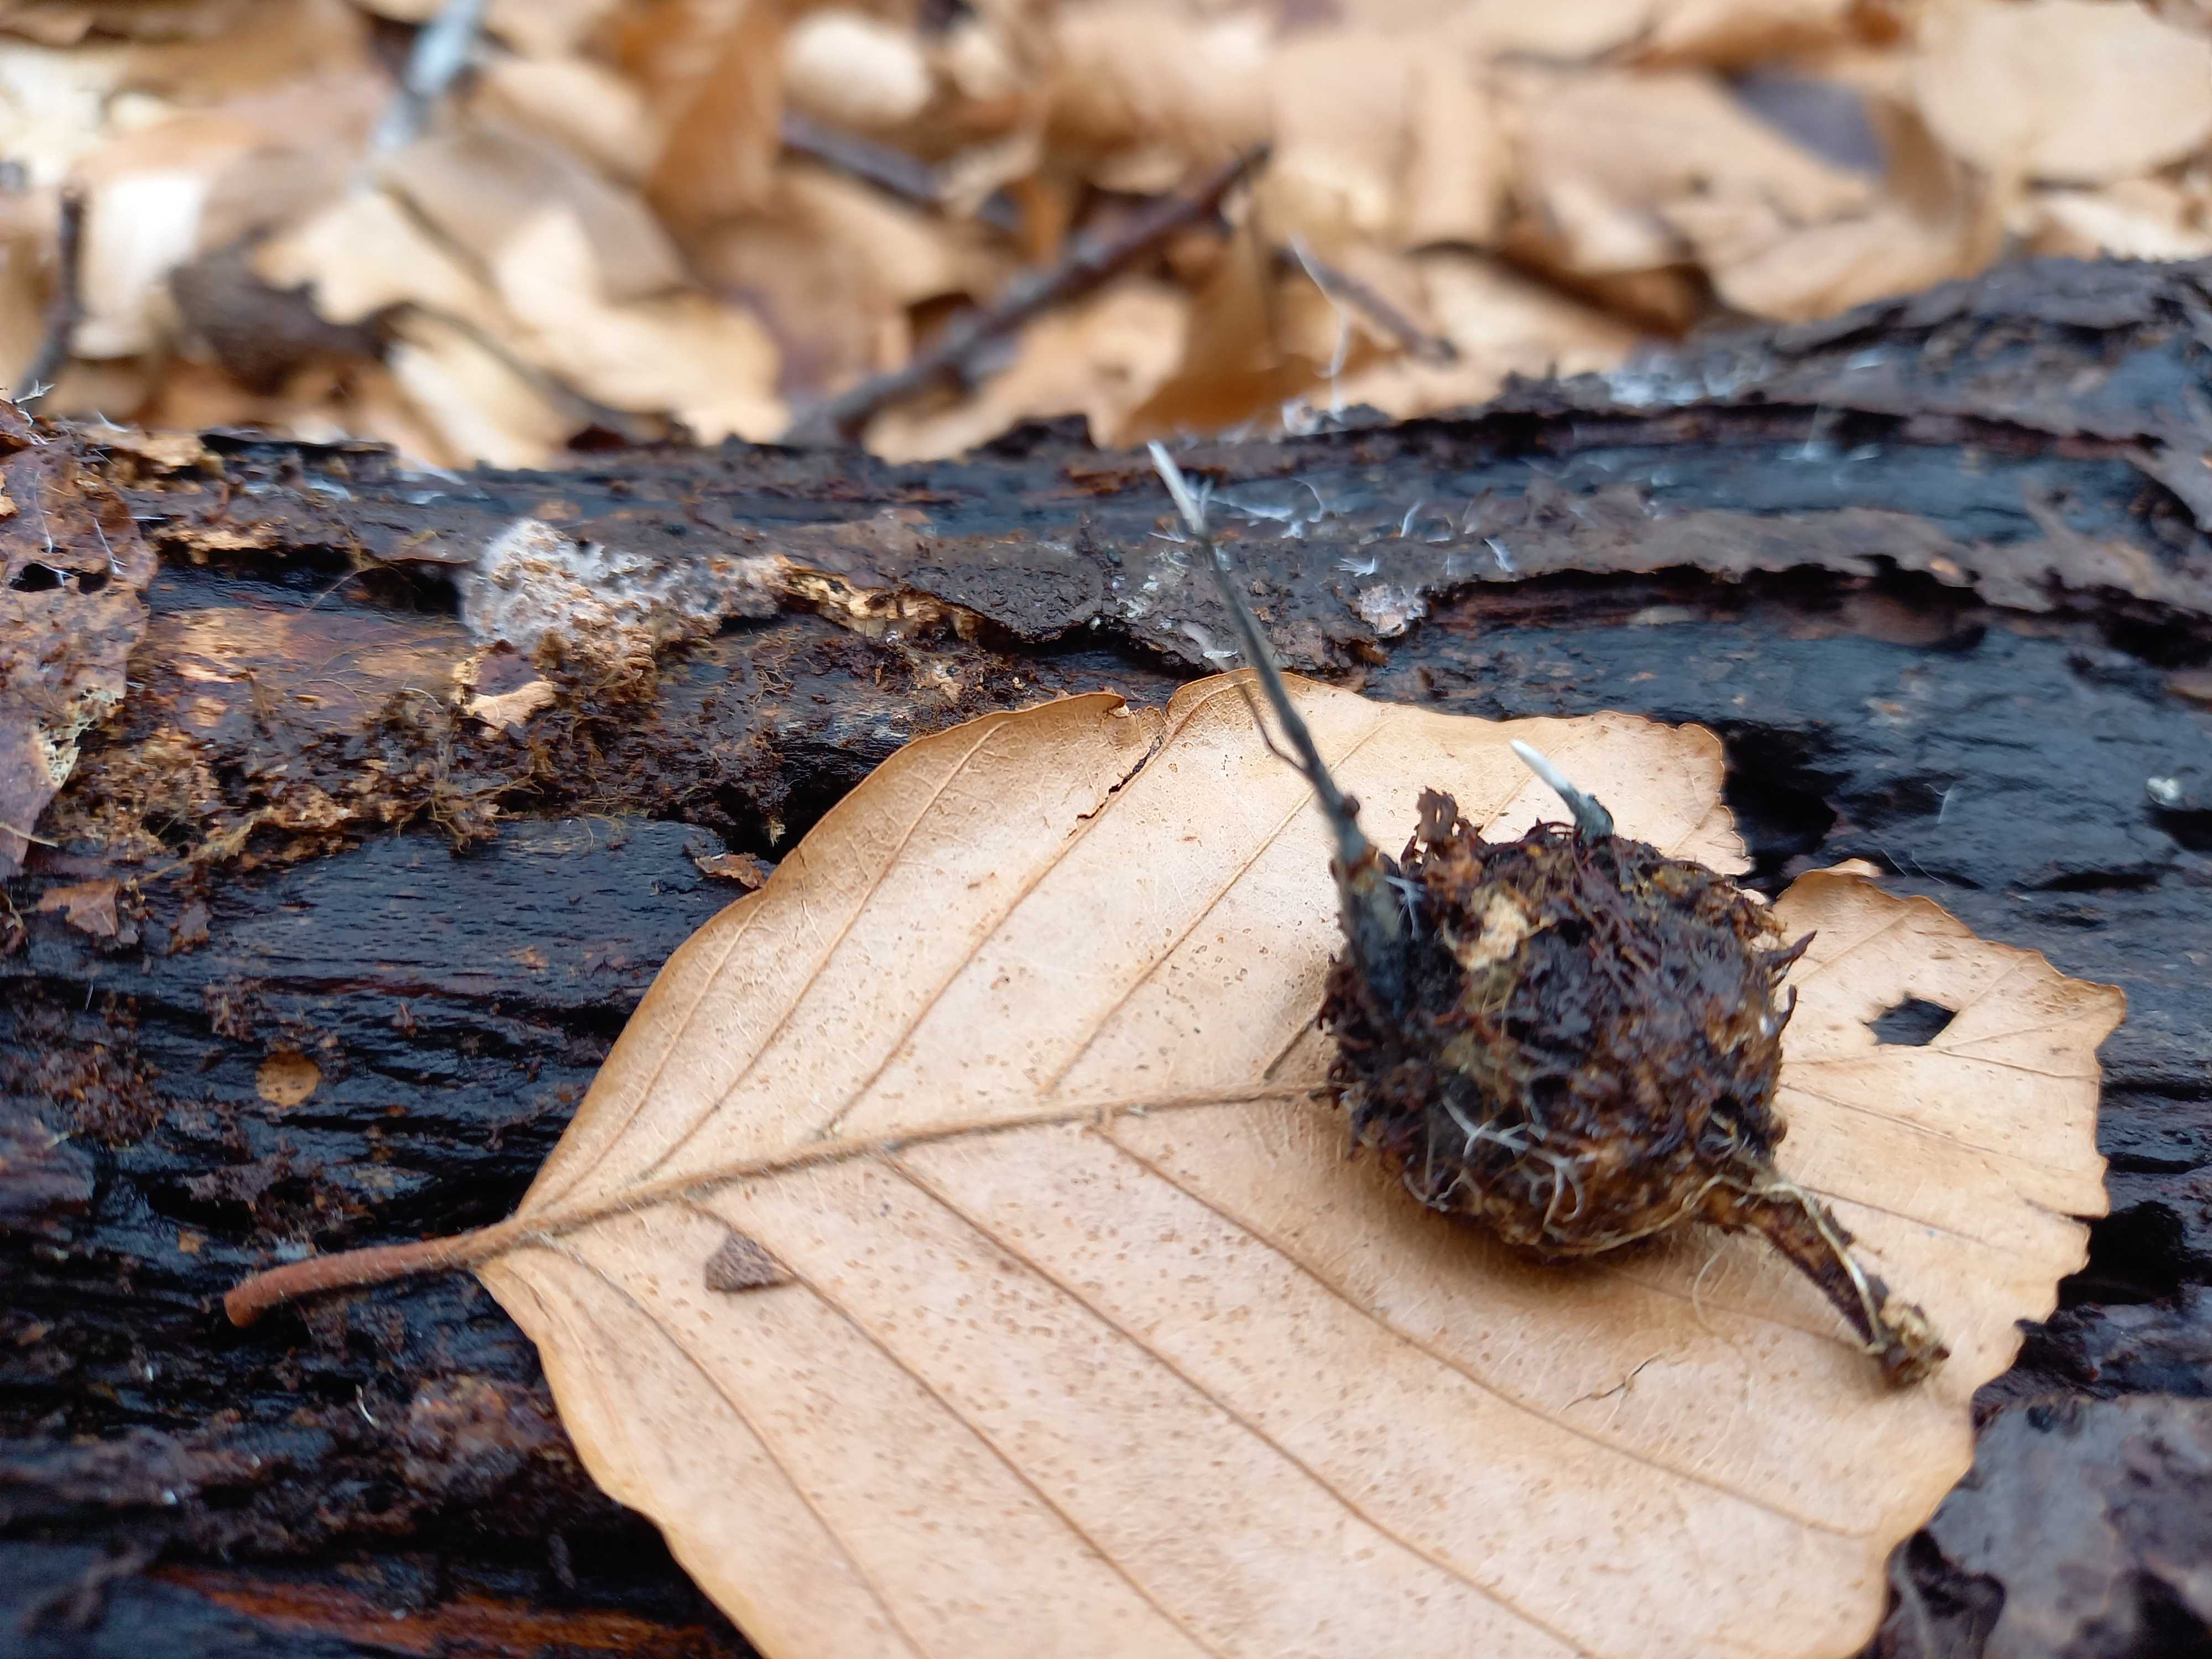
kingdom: Fungi
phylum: Ascomycota
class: Sordariomycetes
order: Xylariales
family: Xylariaceae
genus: Xylaria
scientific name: Xylaria carpophila
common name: bogskål-stødsvamp
